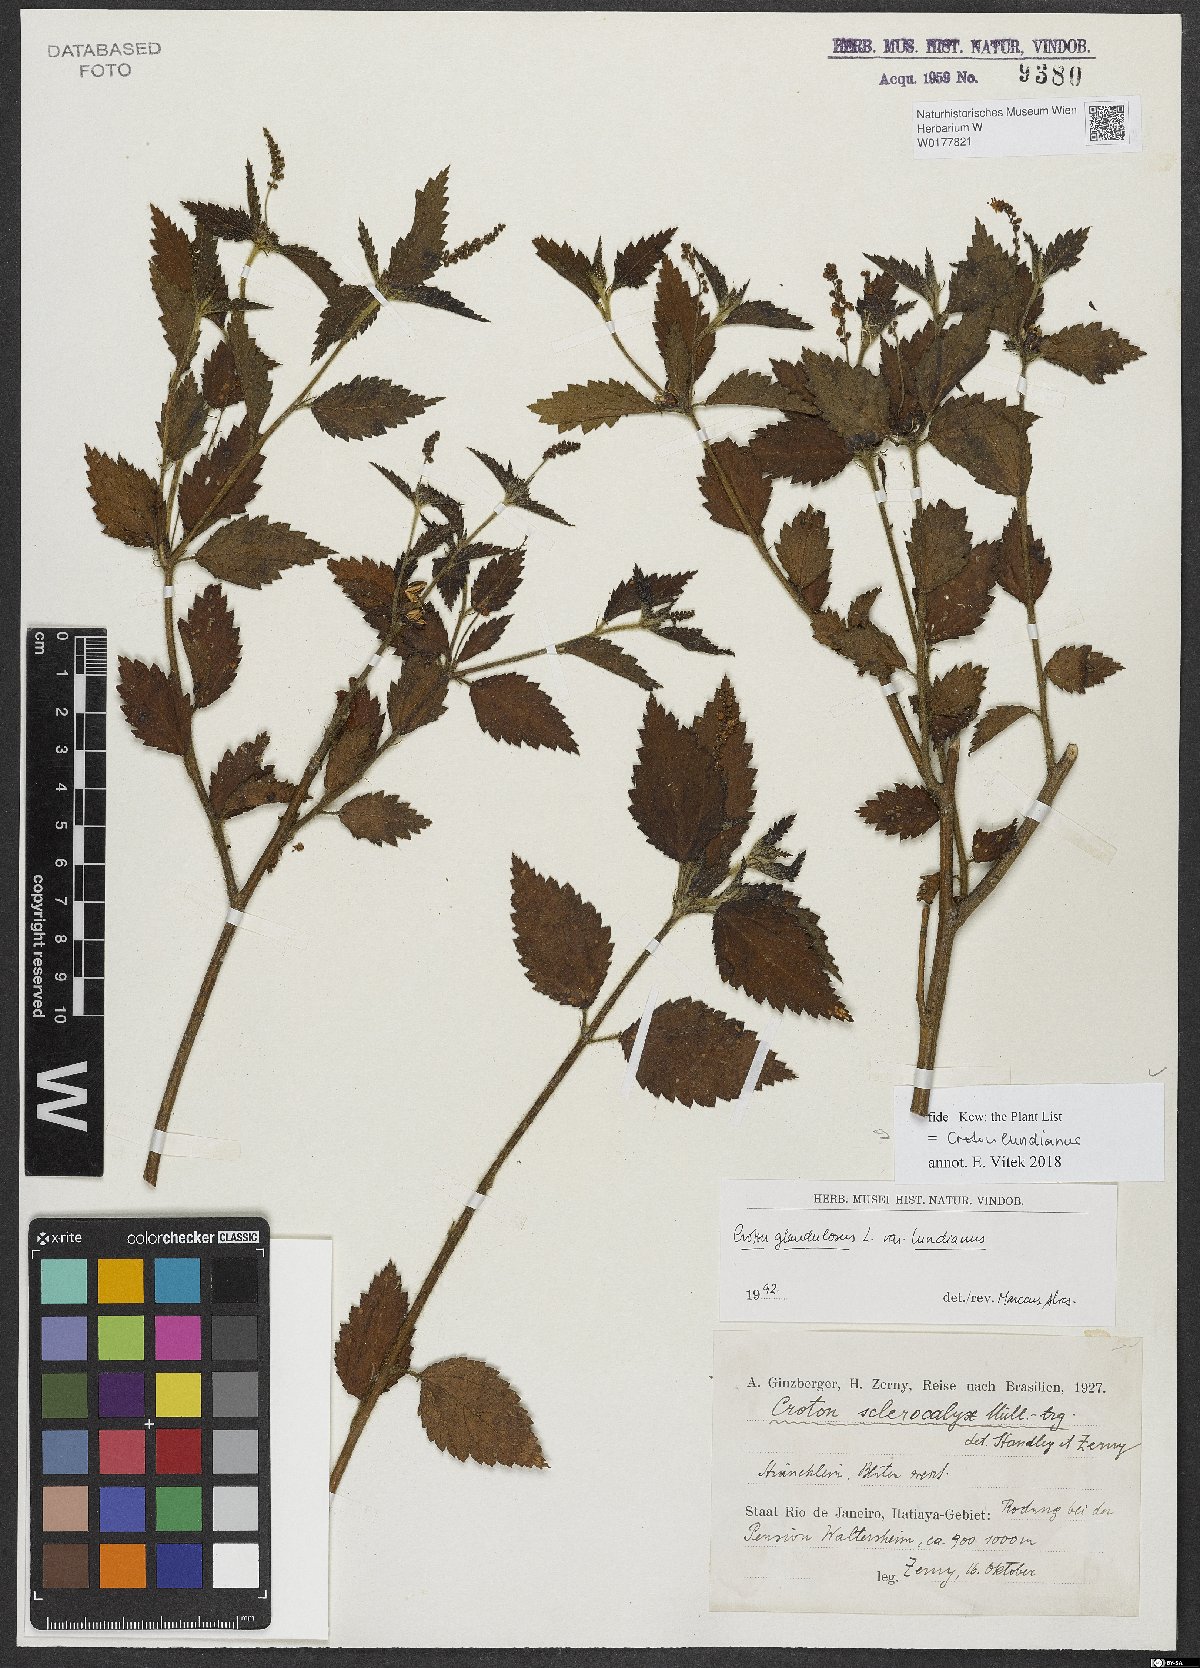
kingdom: Plantae
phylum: Tracheophyta
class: Magnoliopsida
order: Malpighiales
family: Euphorbiaceae
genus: Croton
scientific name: Croton lundianus
